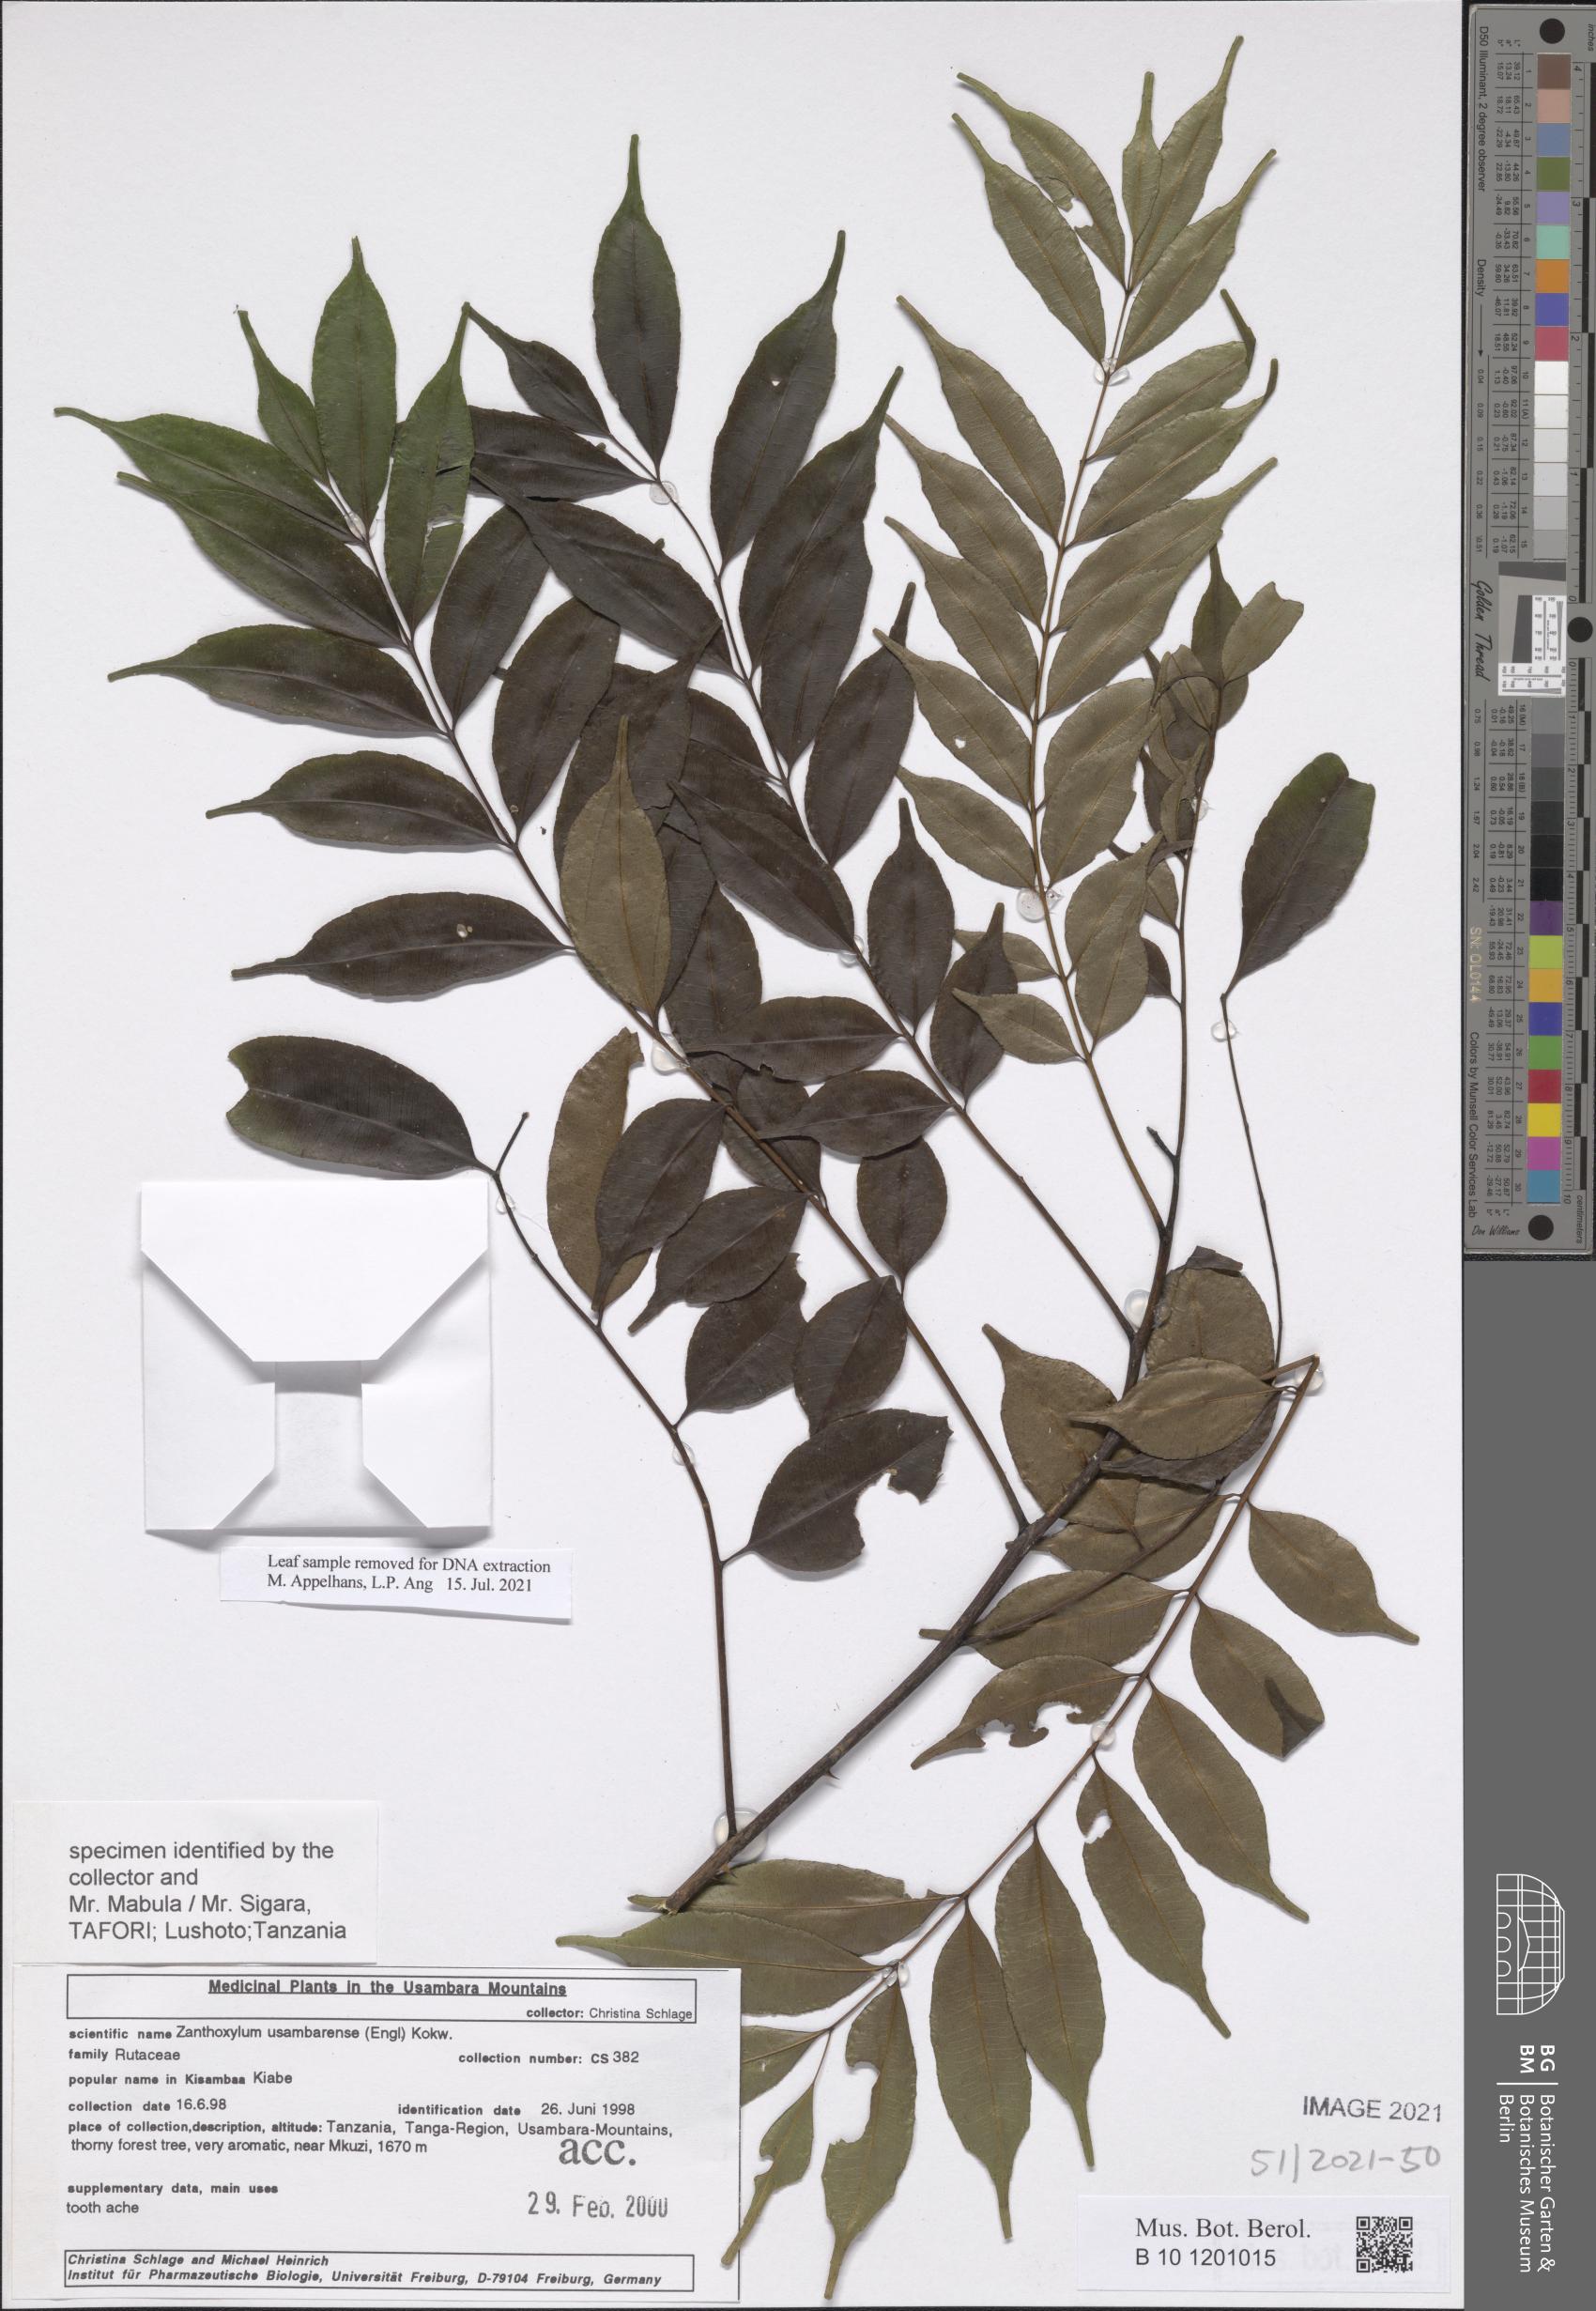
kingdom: Plantae
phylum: Tracheophyta
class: Magnoliopsida
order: Sapindales
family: Rutaceae
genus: Zanthoxylum
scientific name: Zanthoxylum usambarense
